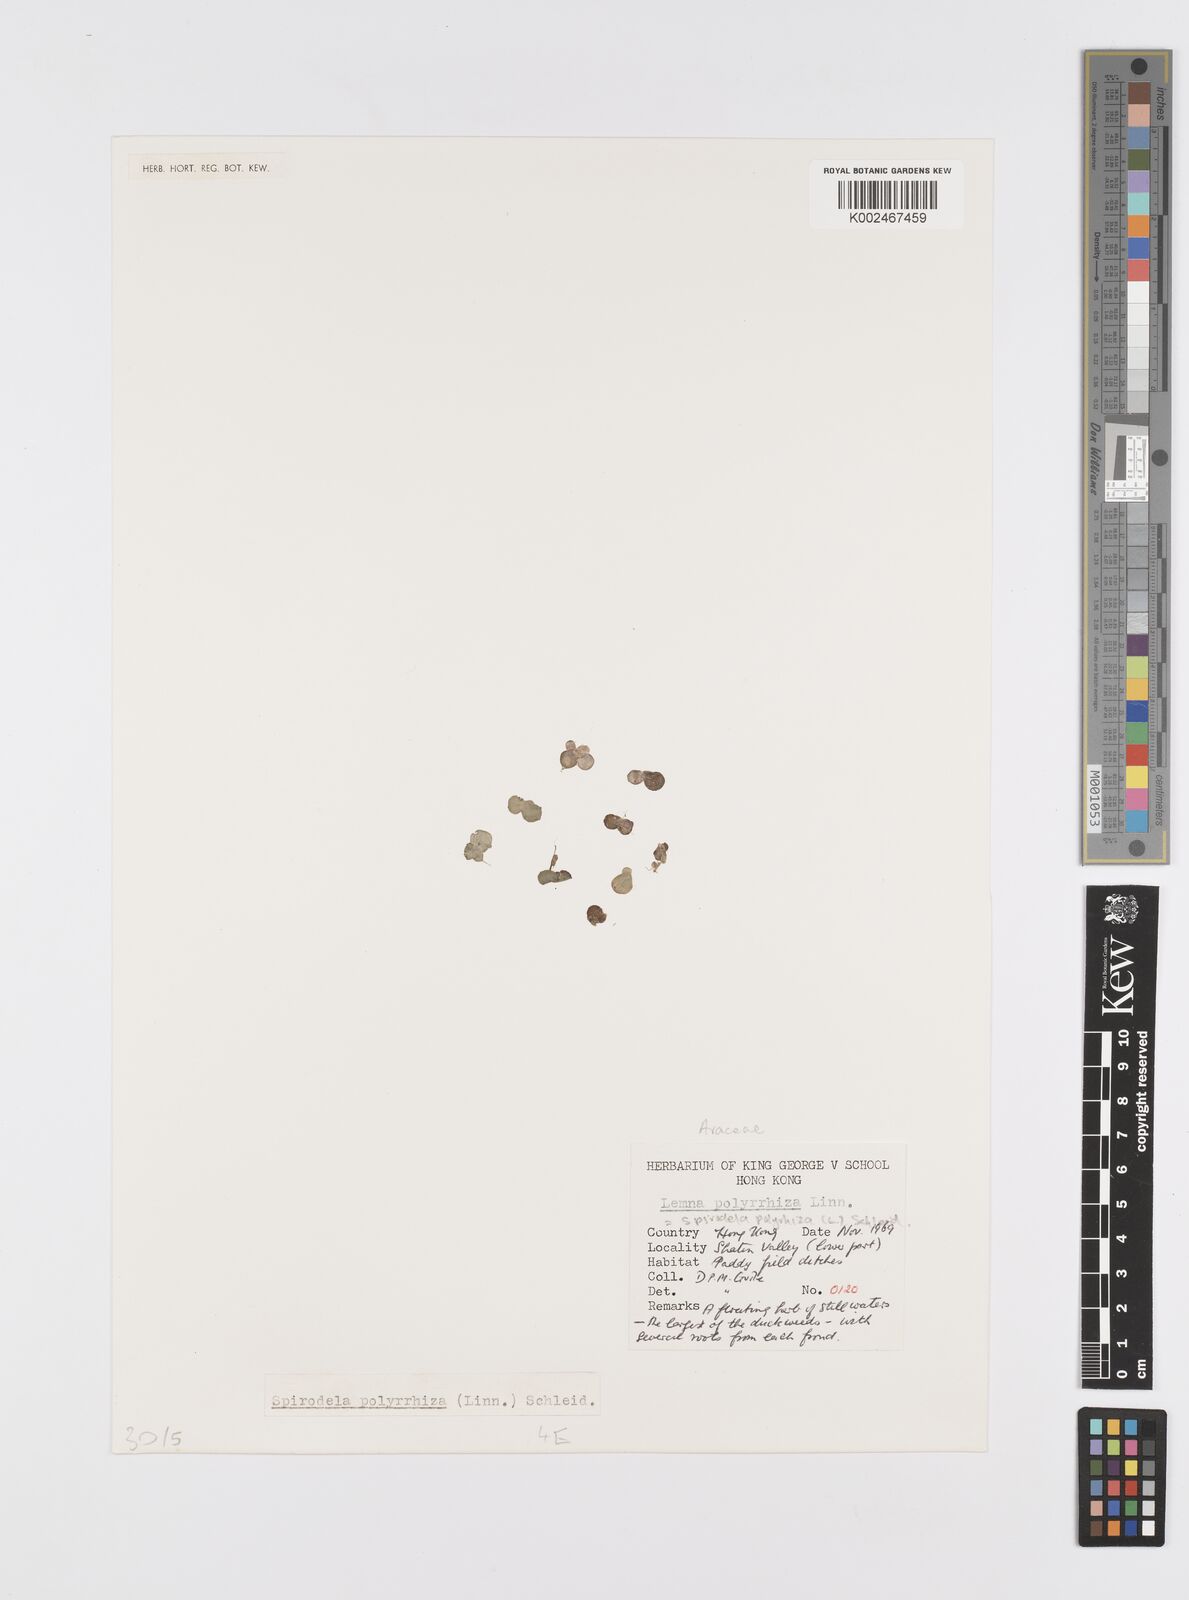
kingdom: Plantae
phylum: Tracheophyta
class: Liliopsida
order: Alismatales
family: Araceae
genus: Spirodela
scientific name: Spirodela polyrhiza
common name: Great duckweed
